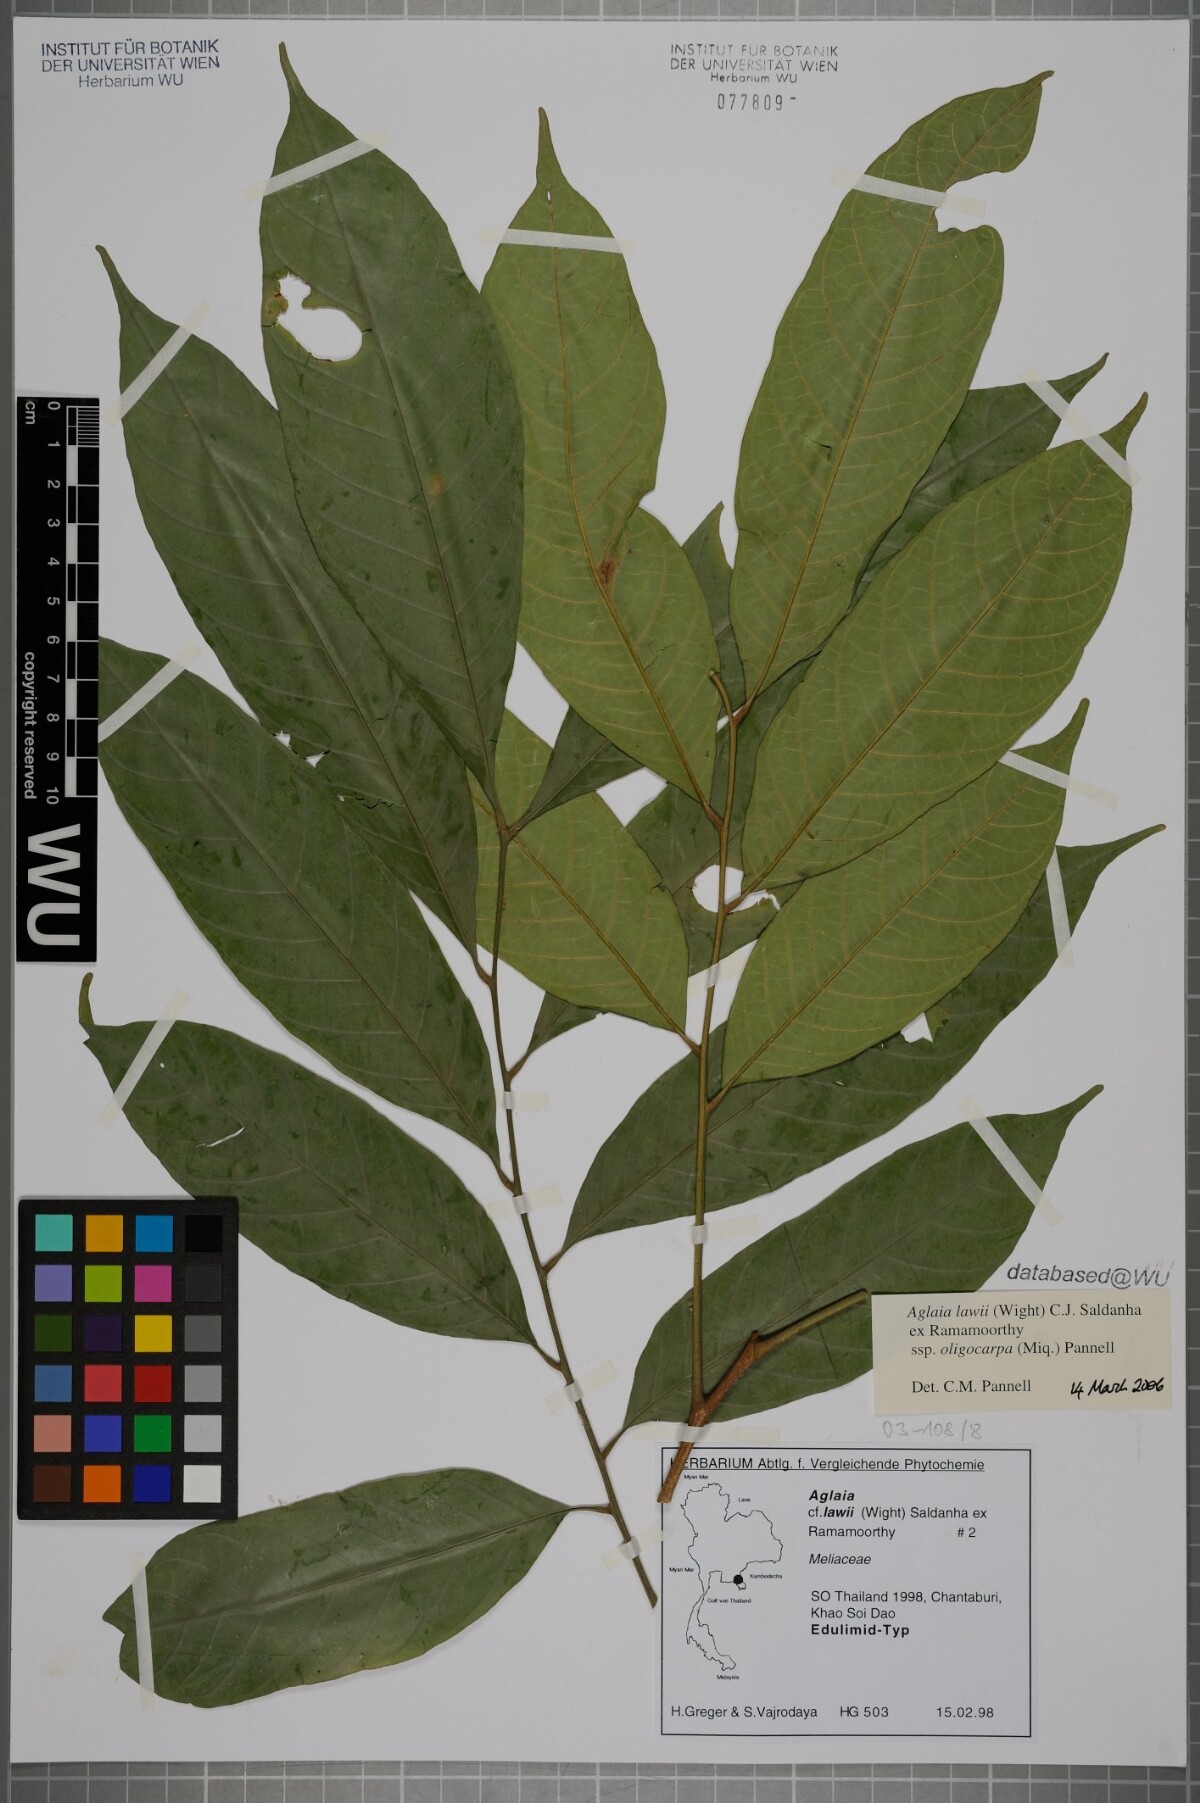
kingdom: Plantae
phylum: Tracheophyta
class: Magnoliopsida
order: Sapindales
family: Meliaceae
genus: Aglaia
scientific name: Aglaia lawii
